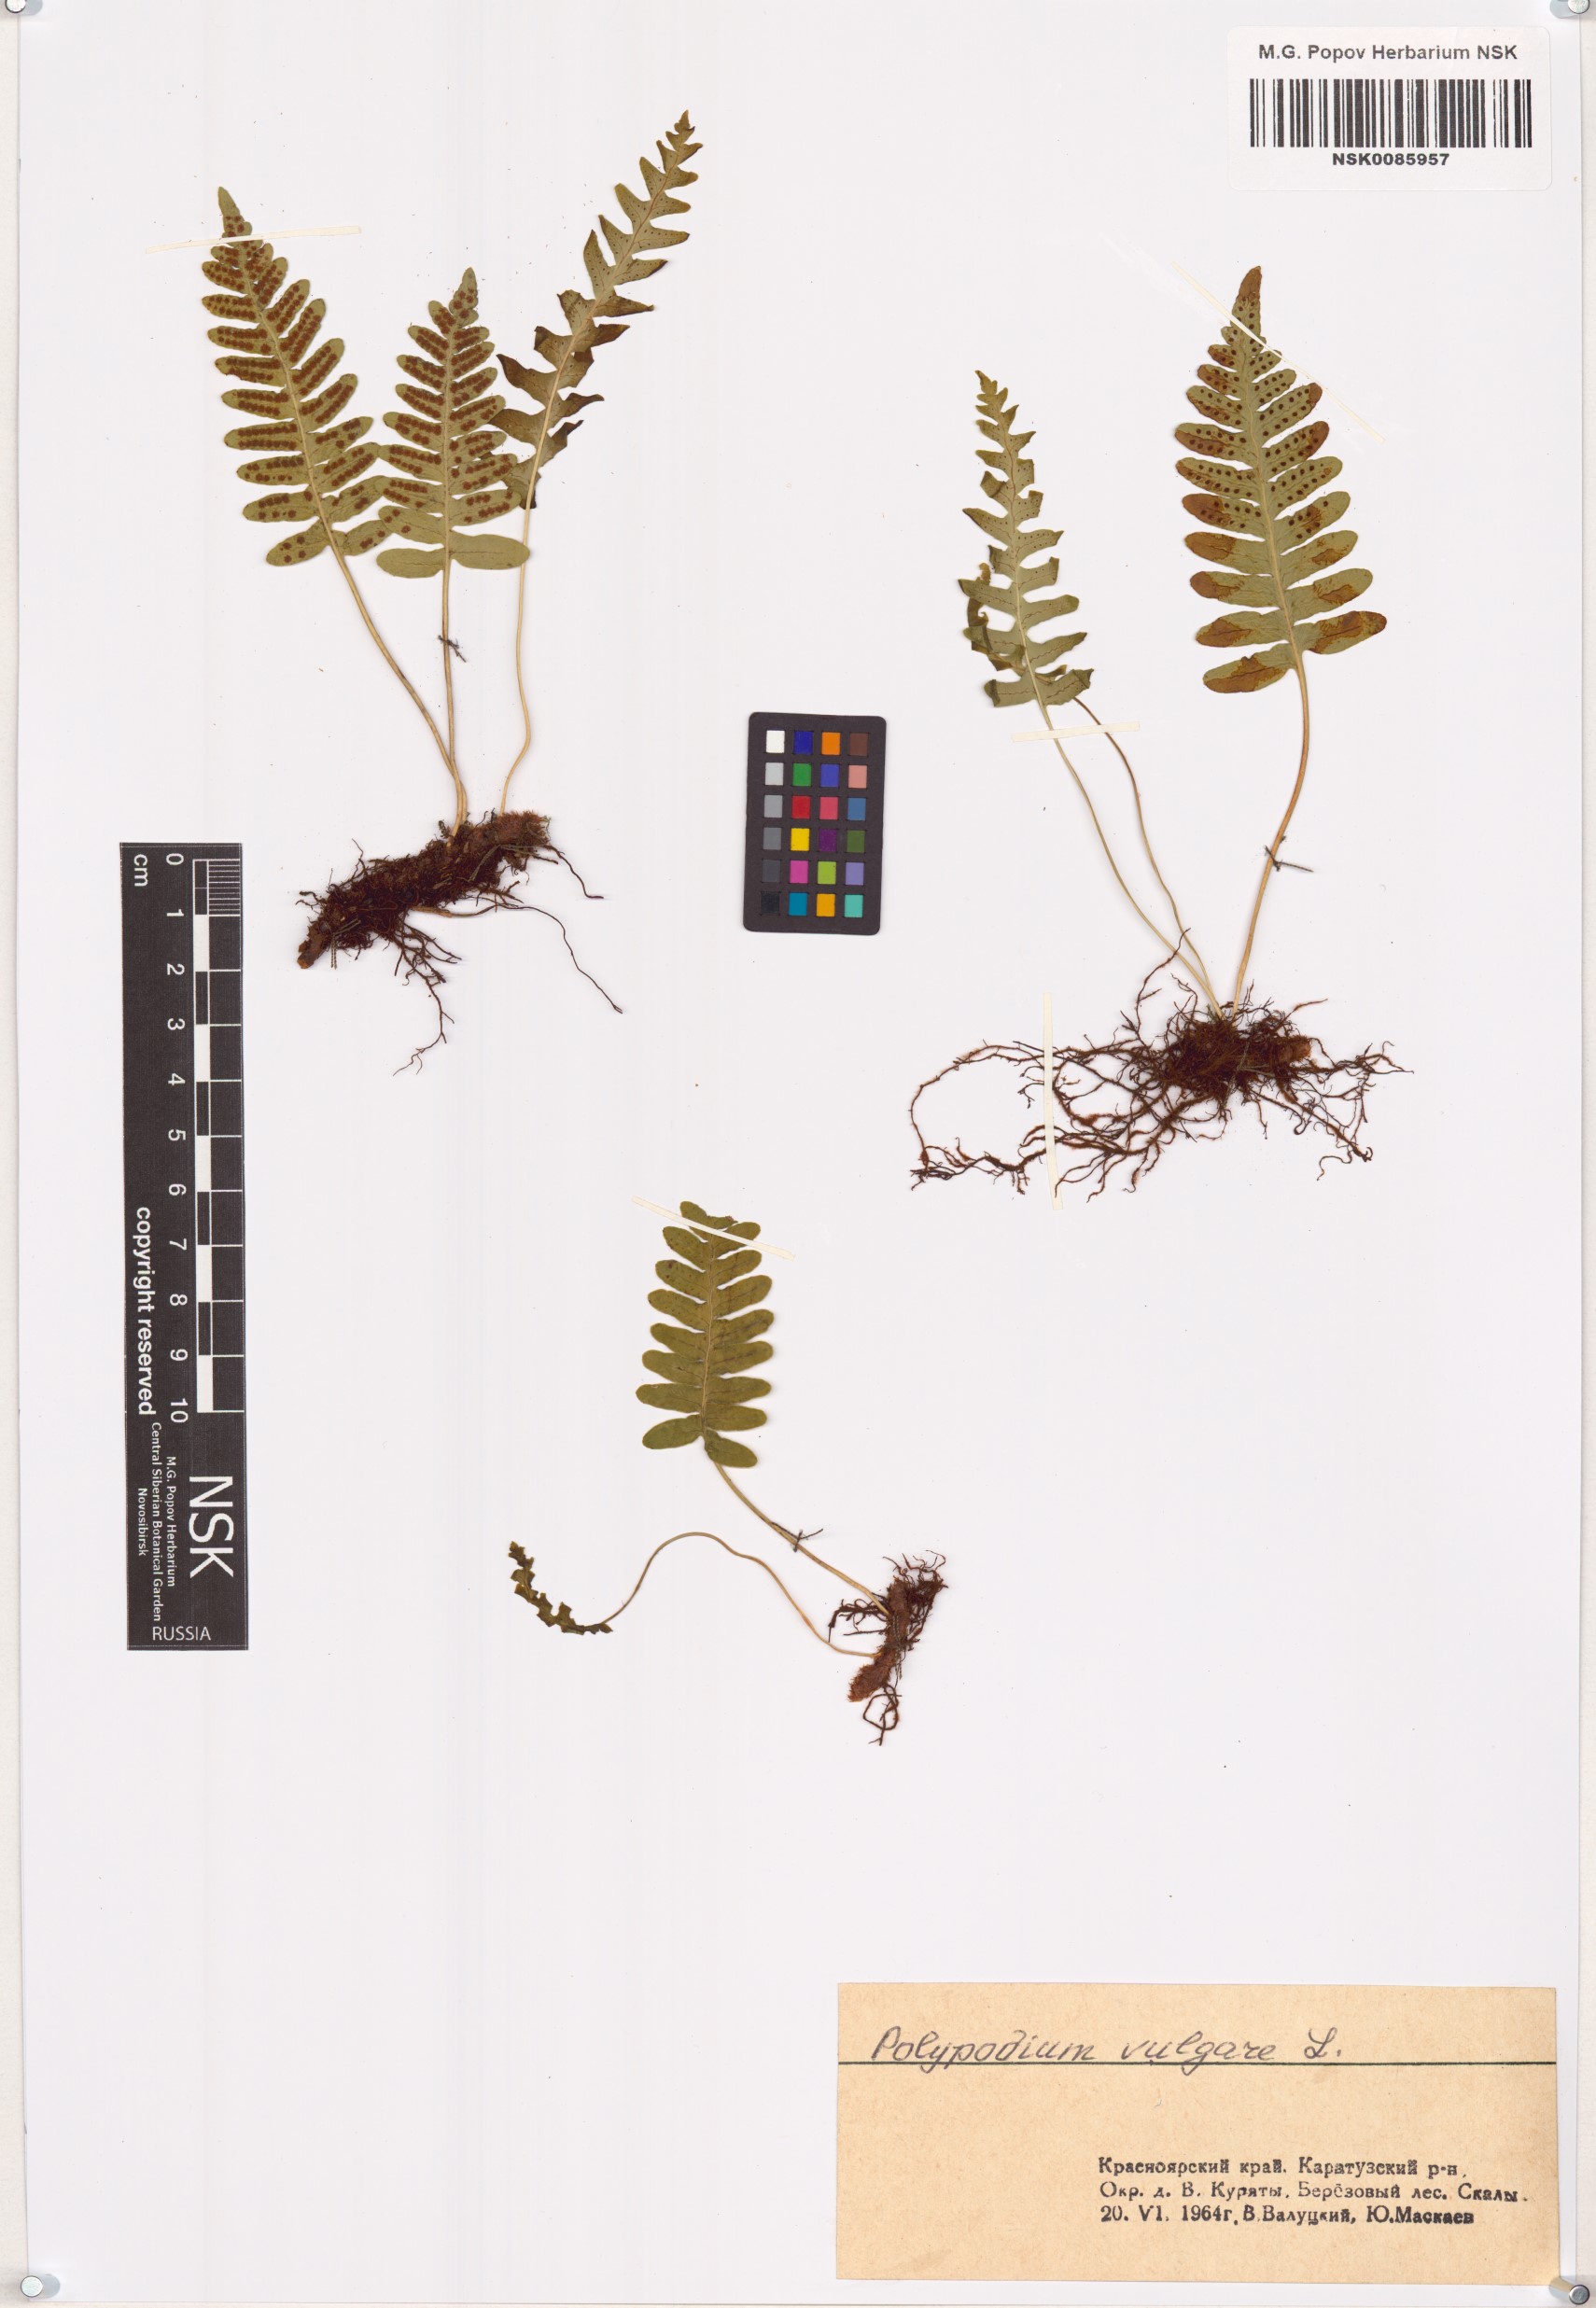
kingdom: Plantae
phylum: Tracheophyta
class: Polypodiopsida
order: Polypodiales
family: Polypodiaceae
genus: Polypodium
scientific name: Polypodium vulgare
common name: Common polypody
